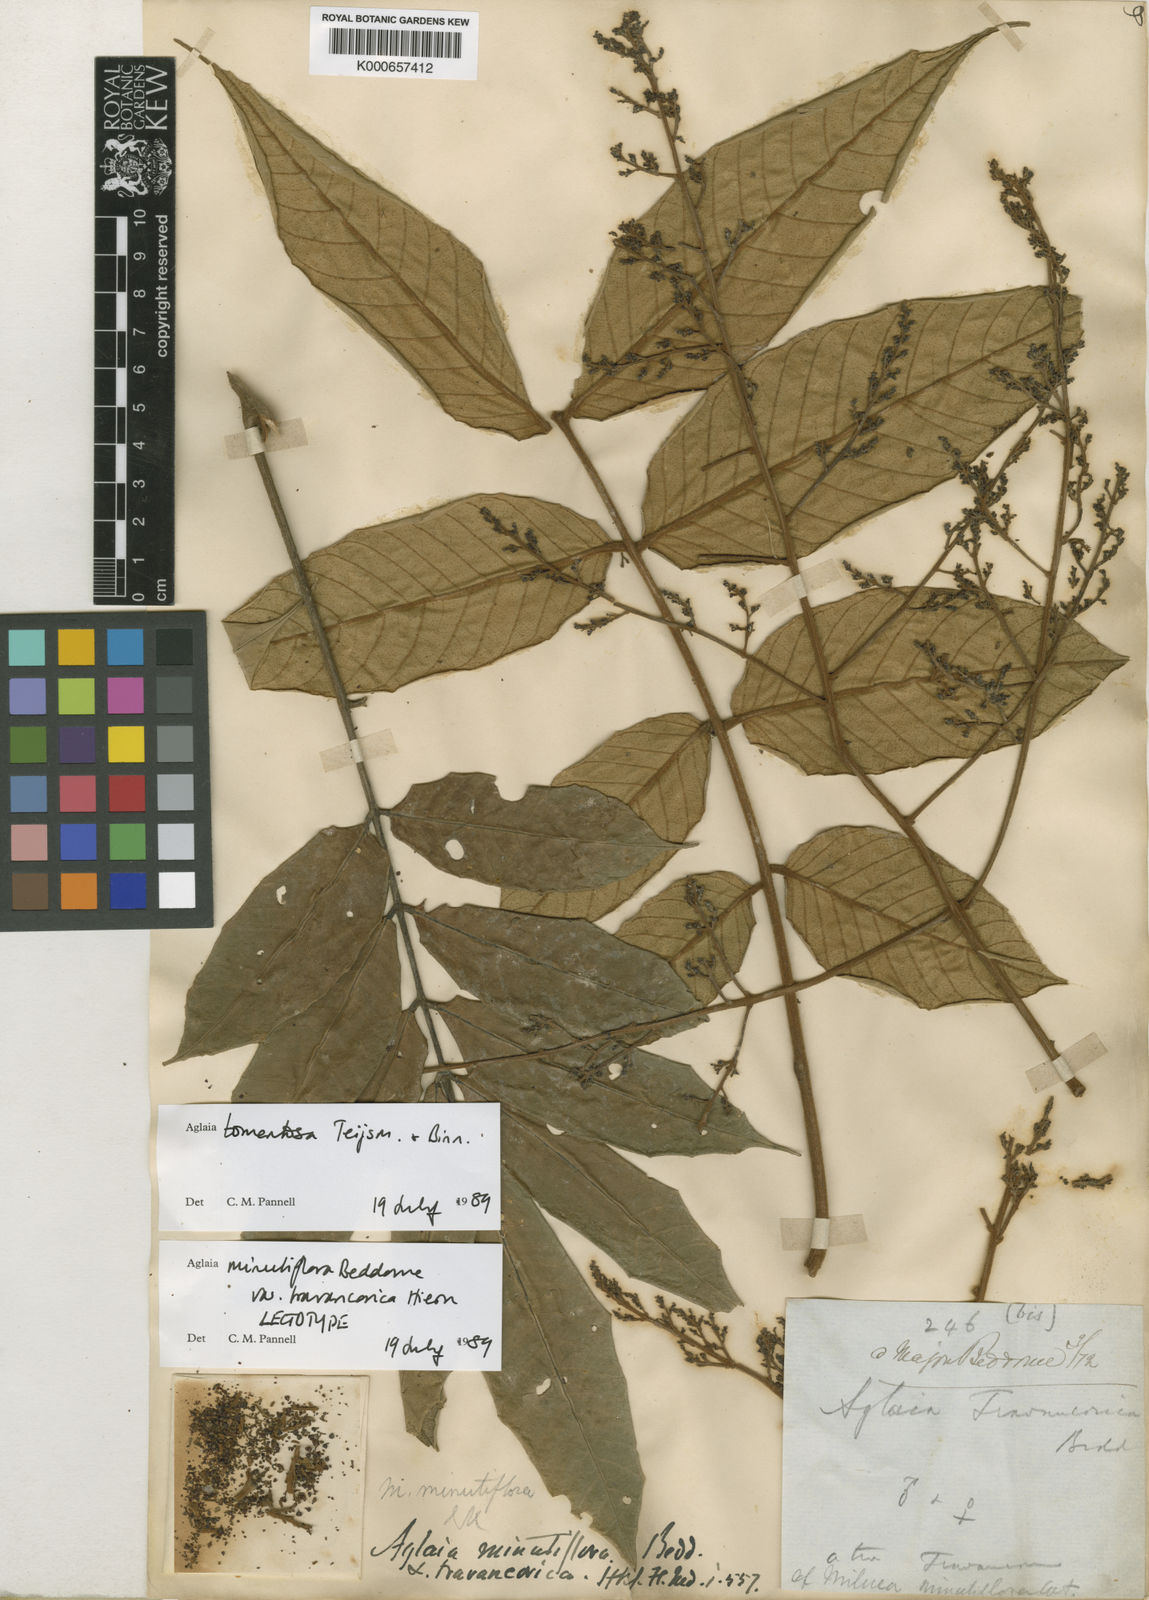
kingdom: Plantae
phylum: Tracheophyta
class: Magnoliopsida
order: Sapindales
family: Meliaceae
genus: Aglaia
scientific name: Aglaia tomentosa
